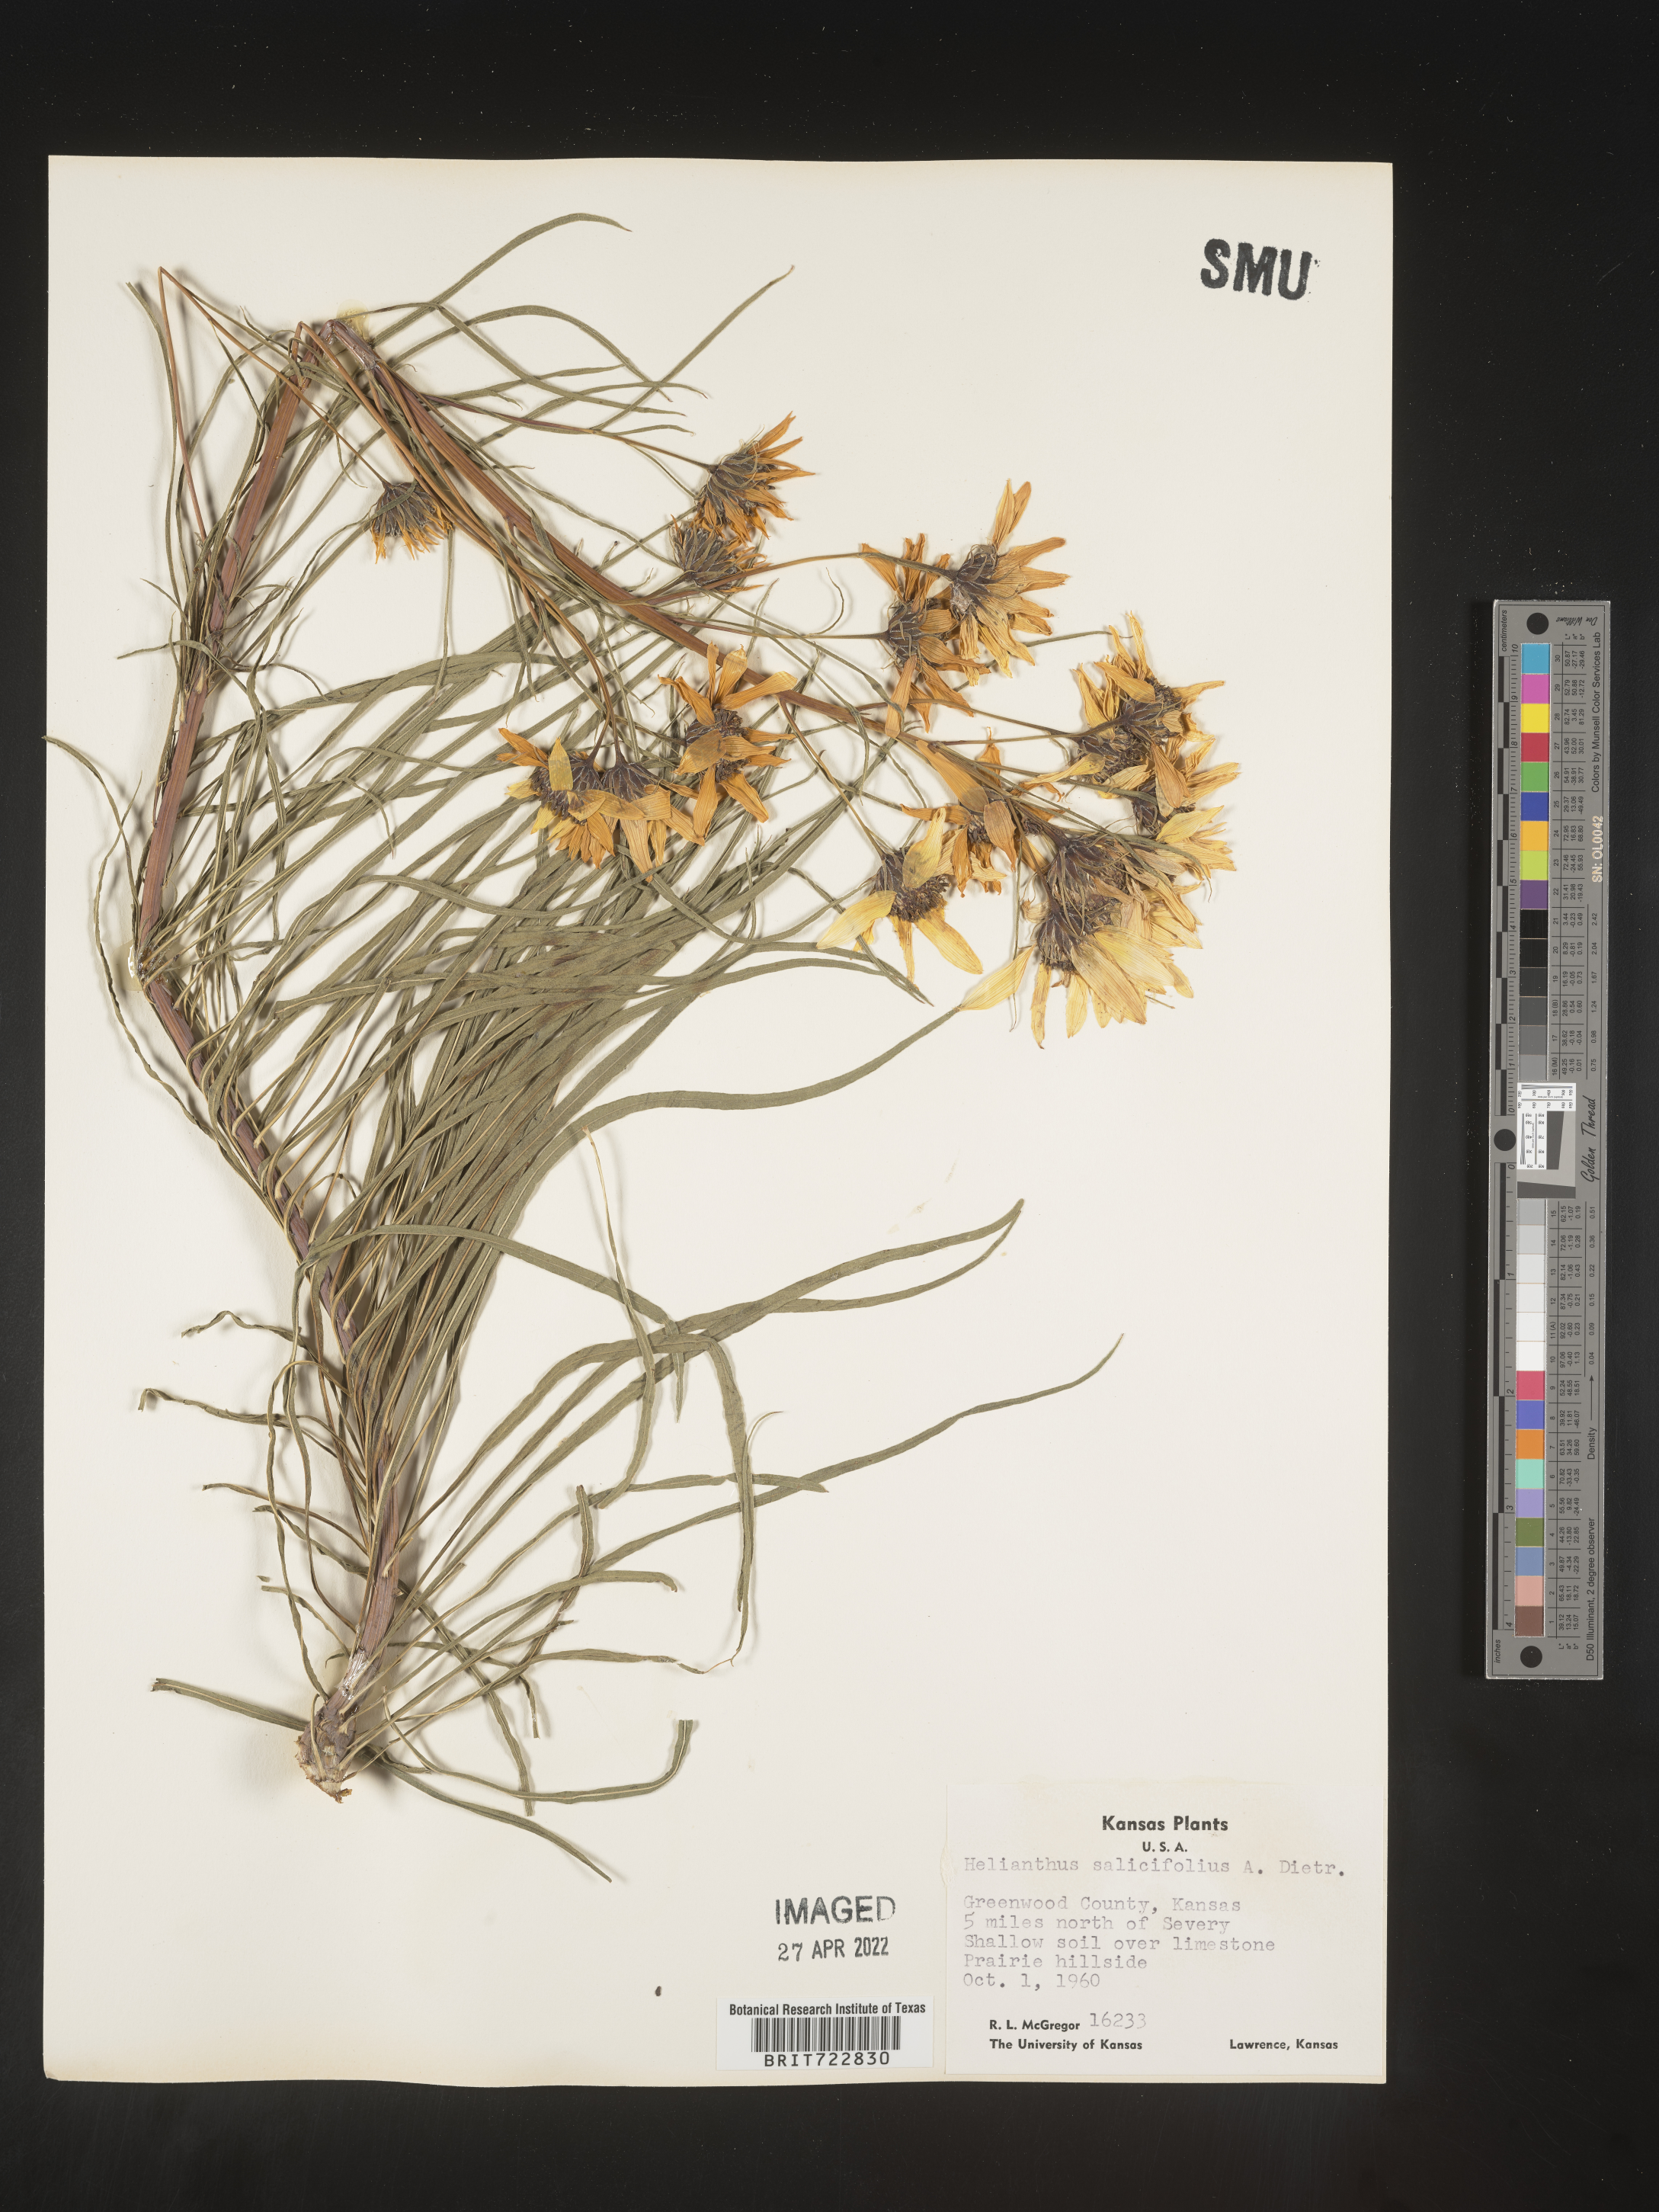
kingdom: Plantae
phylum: Tracheophyta
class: Magnoliopsida
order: Asterales
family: Asteraceae
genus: Helianthus
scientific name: Helianthus salicifolius
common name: Willowleaf sunflower
